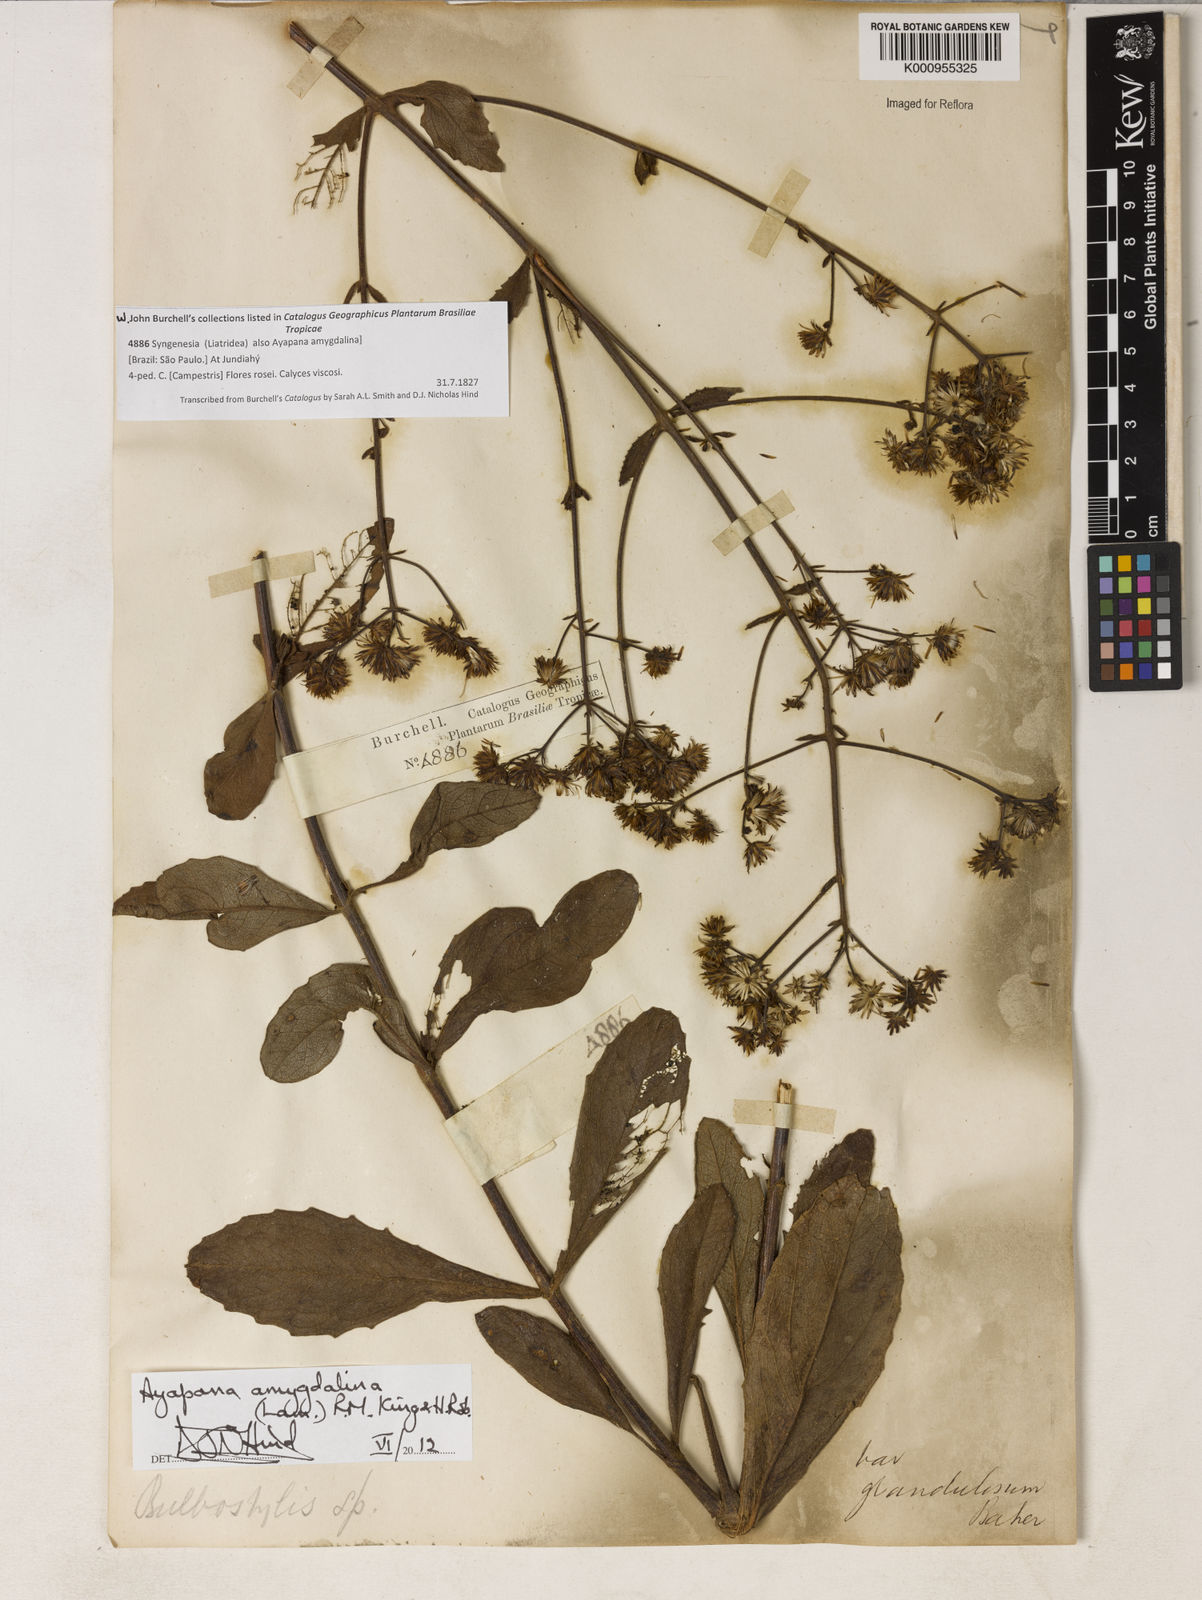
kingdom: Plantae
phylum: Tracheophyta
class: Magnoliopsida
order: Asterales
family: Asteraceae
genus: Ayapana
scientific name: Ayapana amygdalina
